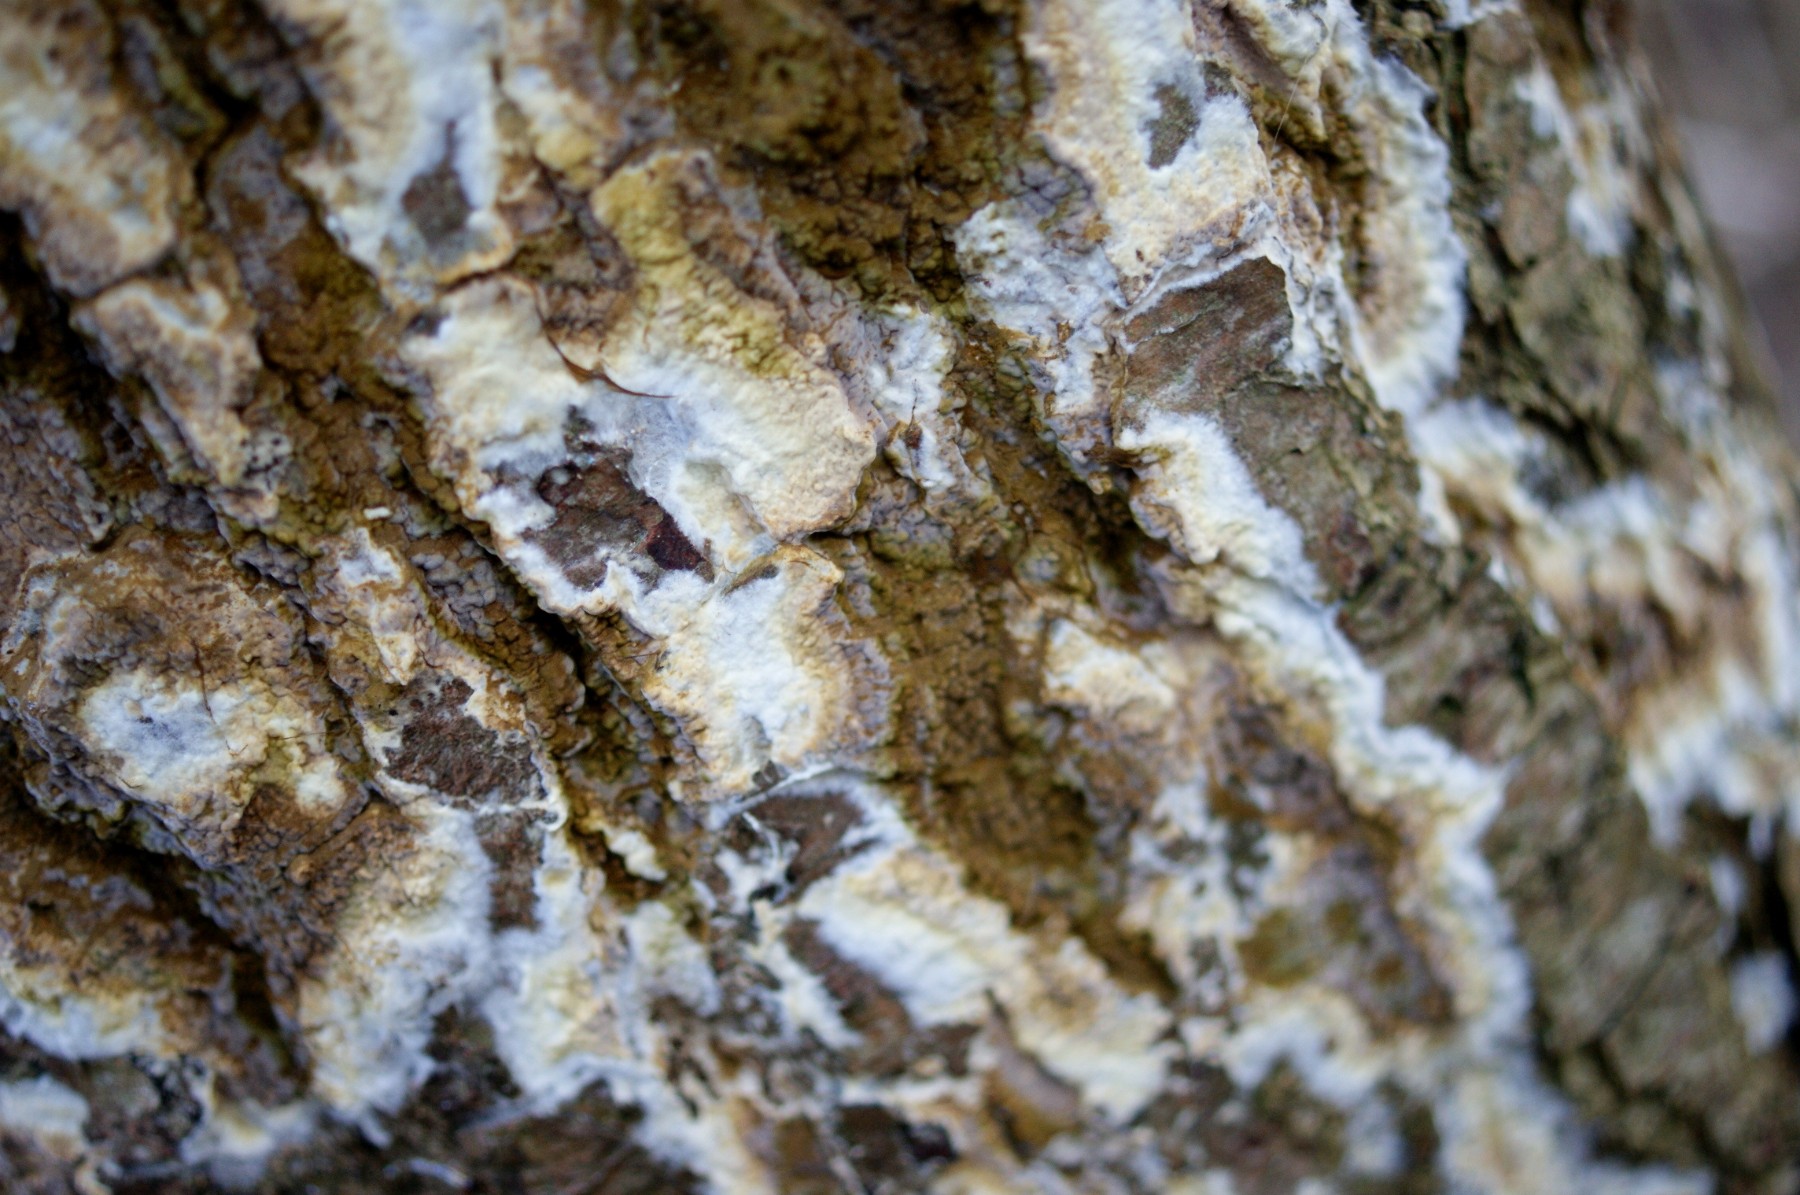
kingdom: Fungi
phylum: Basidiomycota
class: Agaricomycetes
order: Boletales
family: Coniophoraceae
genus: Coniophora
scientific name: Coniophora puteana
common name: gul tømmersvamp
